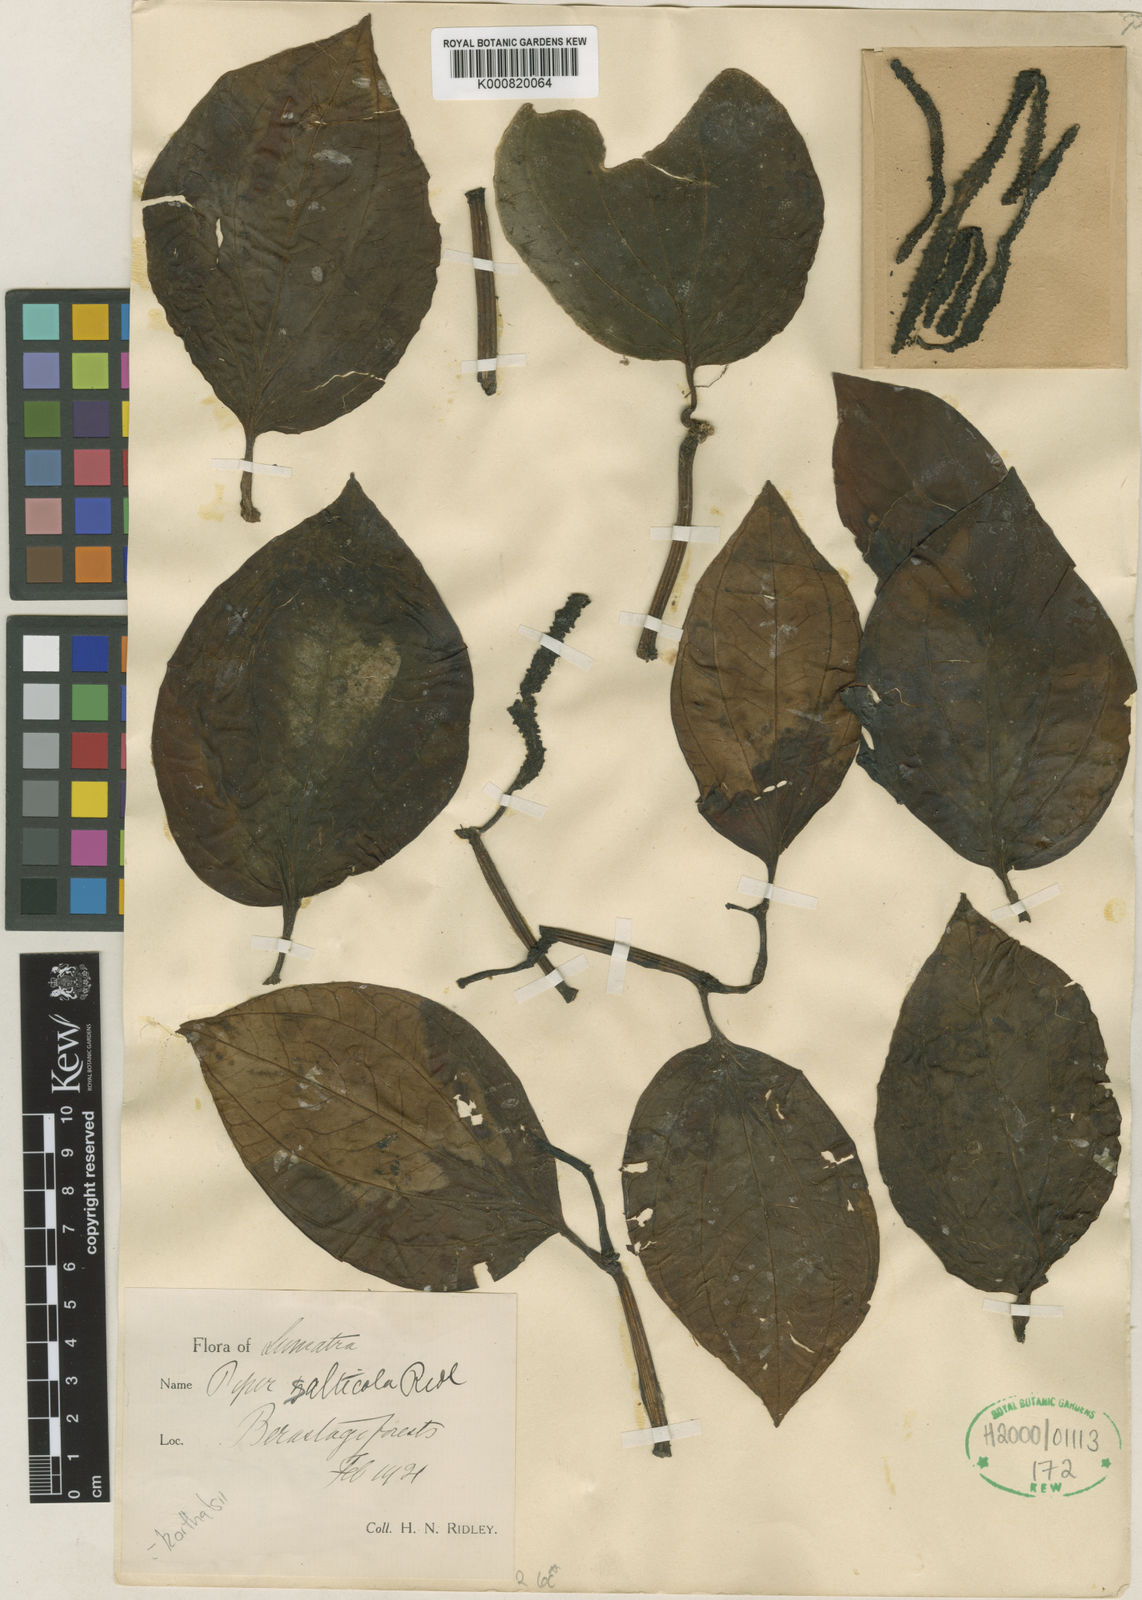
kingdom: Plantae
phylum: Tracheophyta
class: Magnoliopsida
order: Piperales
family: Piperaceae
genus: Piper
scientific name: Piper quinqueangulatum
